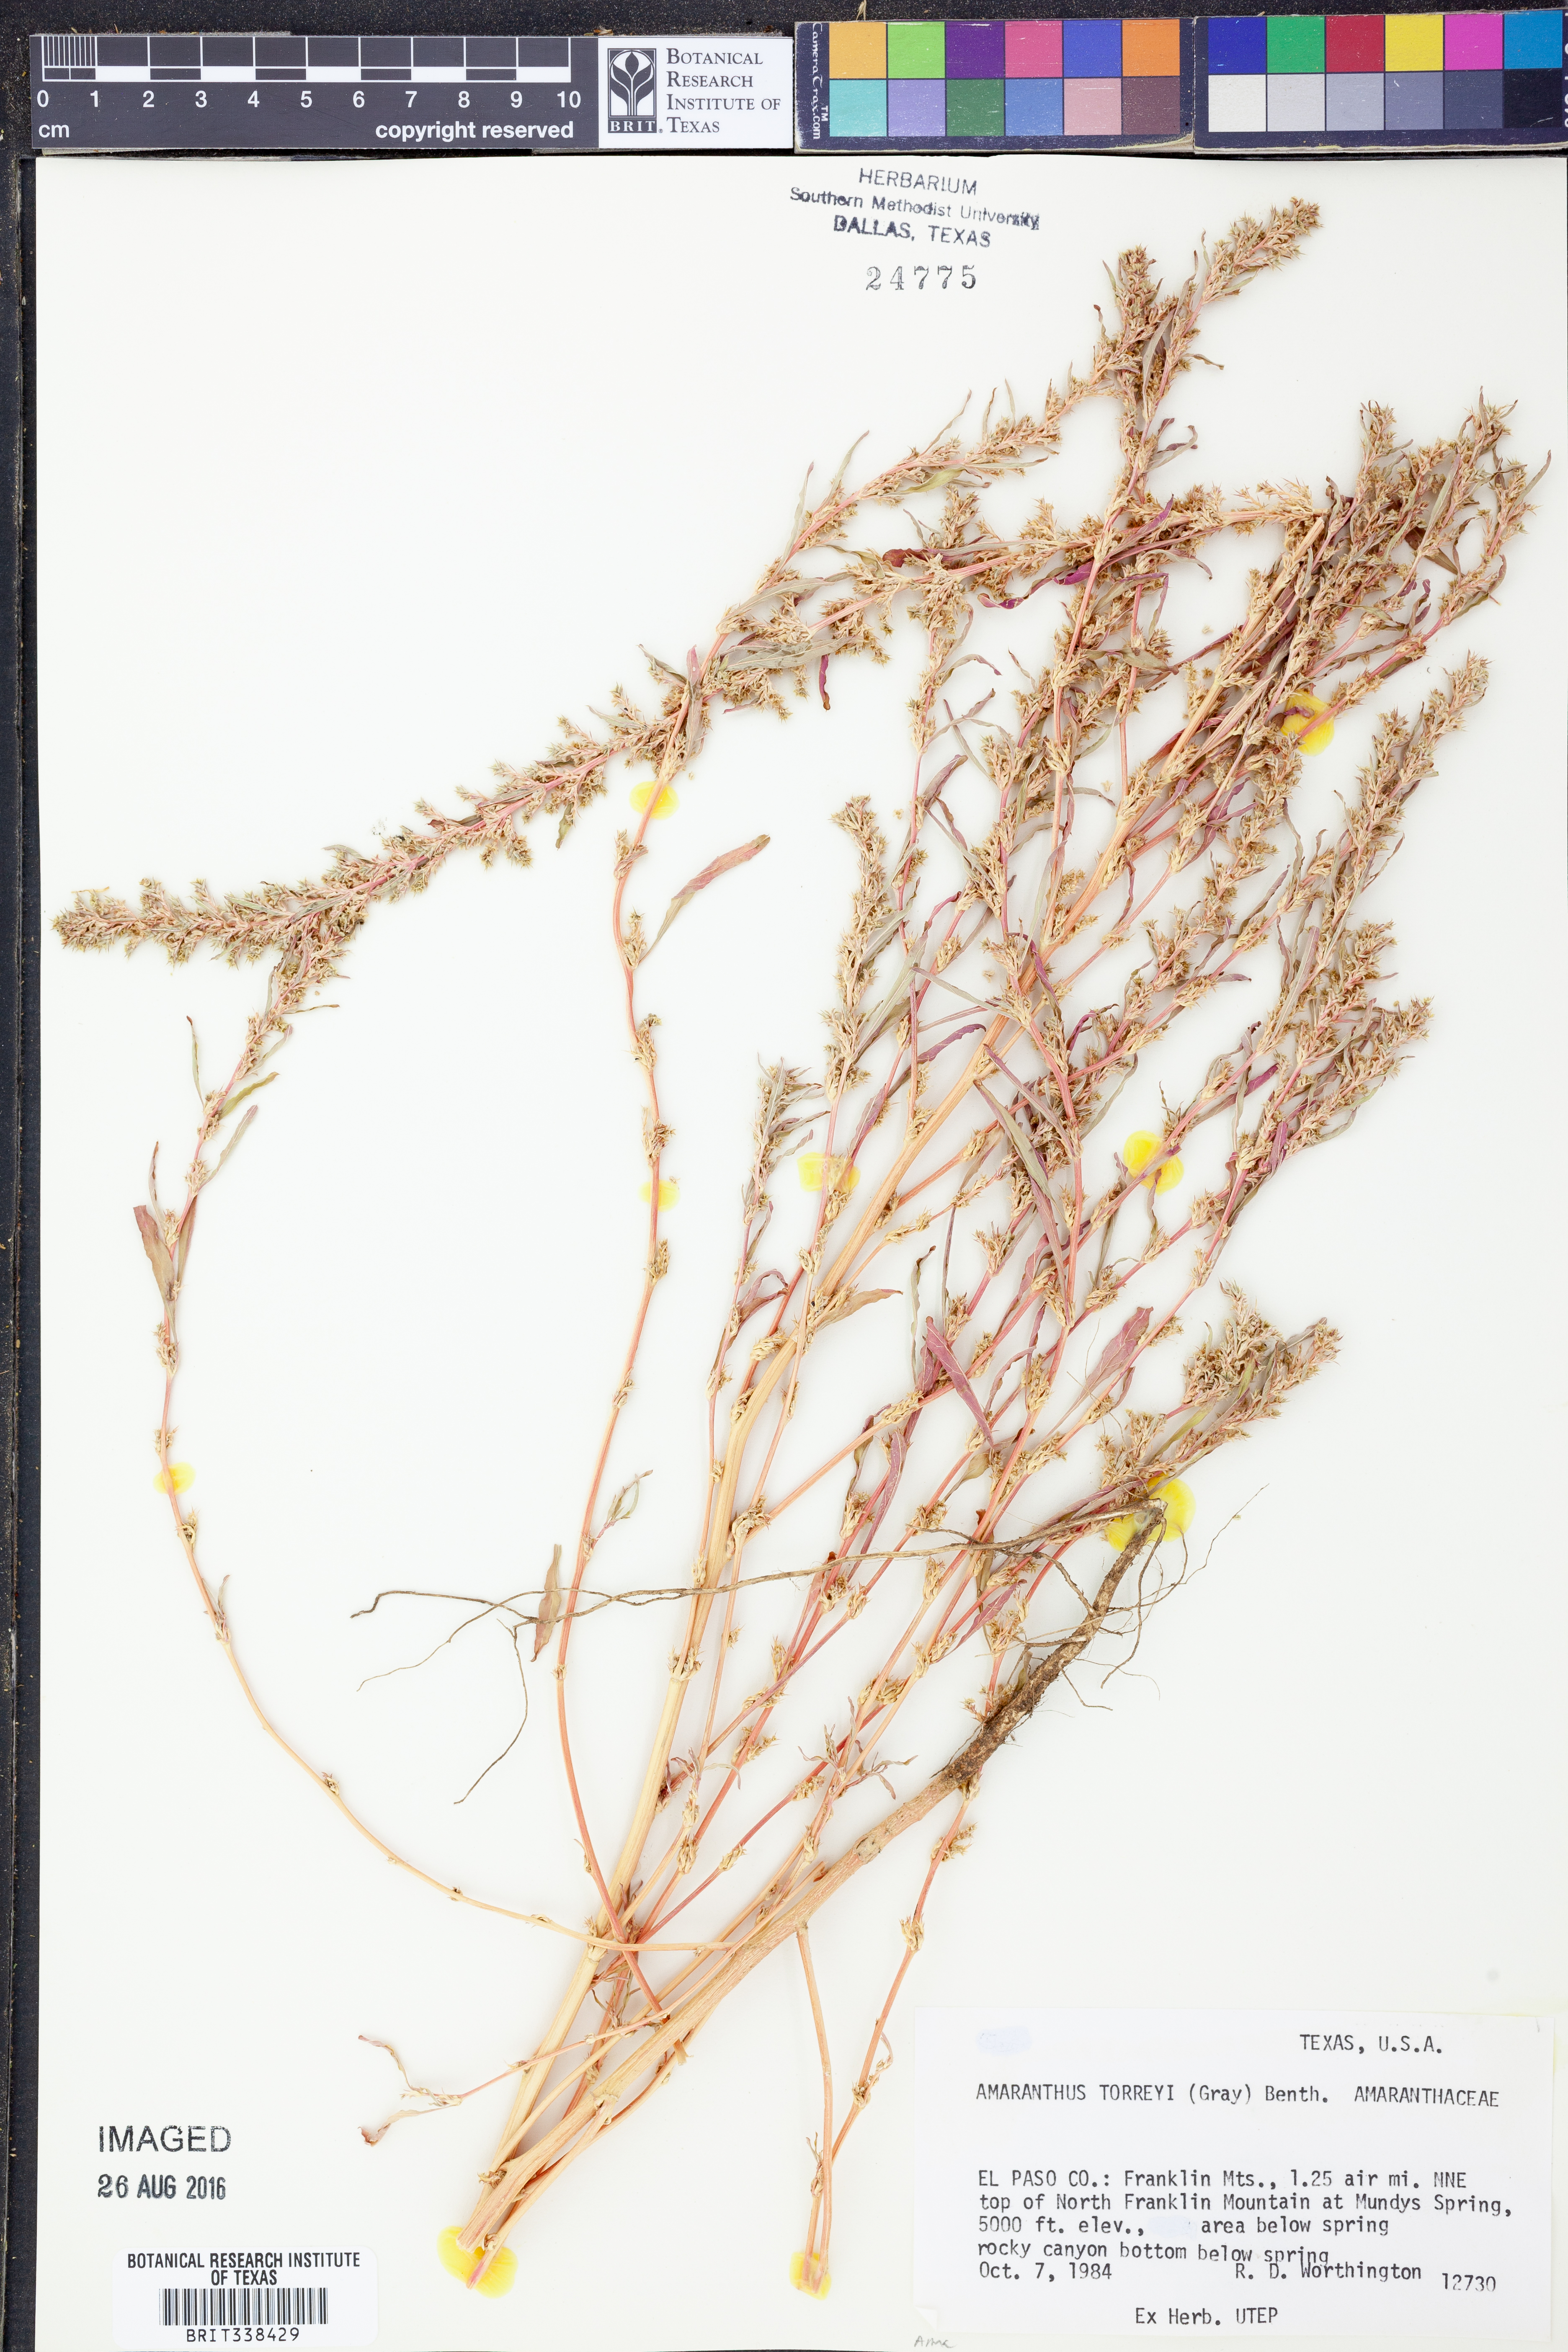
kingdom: Plantae
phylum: Tracheophyta
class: Magnoliopsida
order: Caryophyllales
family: Amaranthaceae
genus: Amaranthus
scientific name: Amaranthus torreyi
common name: Bigelow's amaranth
